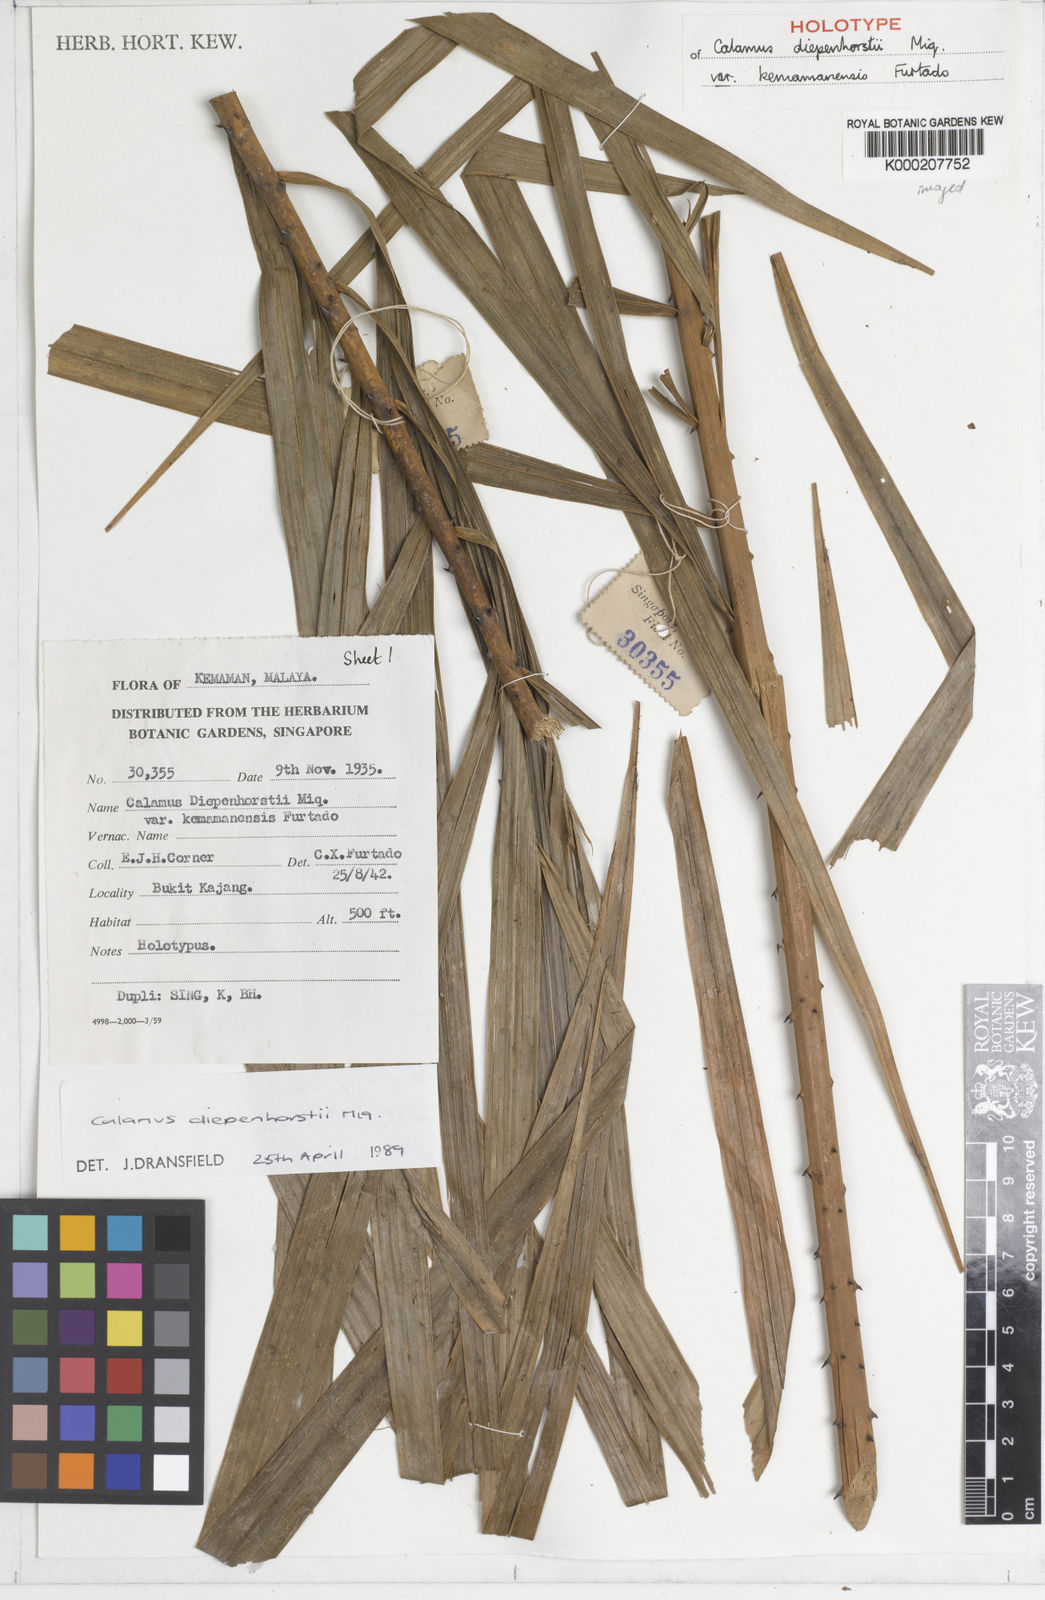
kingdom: Plantae
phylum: Tracheophyta
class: Liliopsida
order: Arecales
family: Arecaceae
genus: Calamus
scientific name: Calamus diepenhorstii
